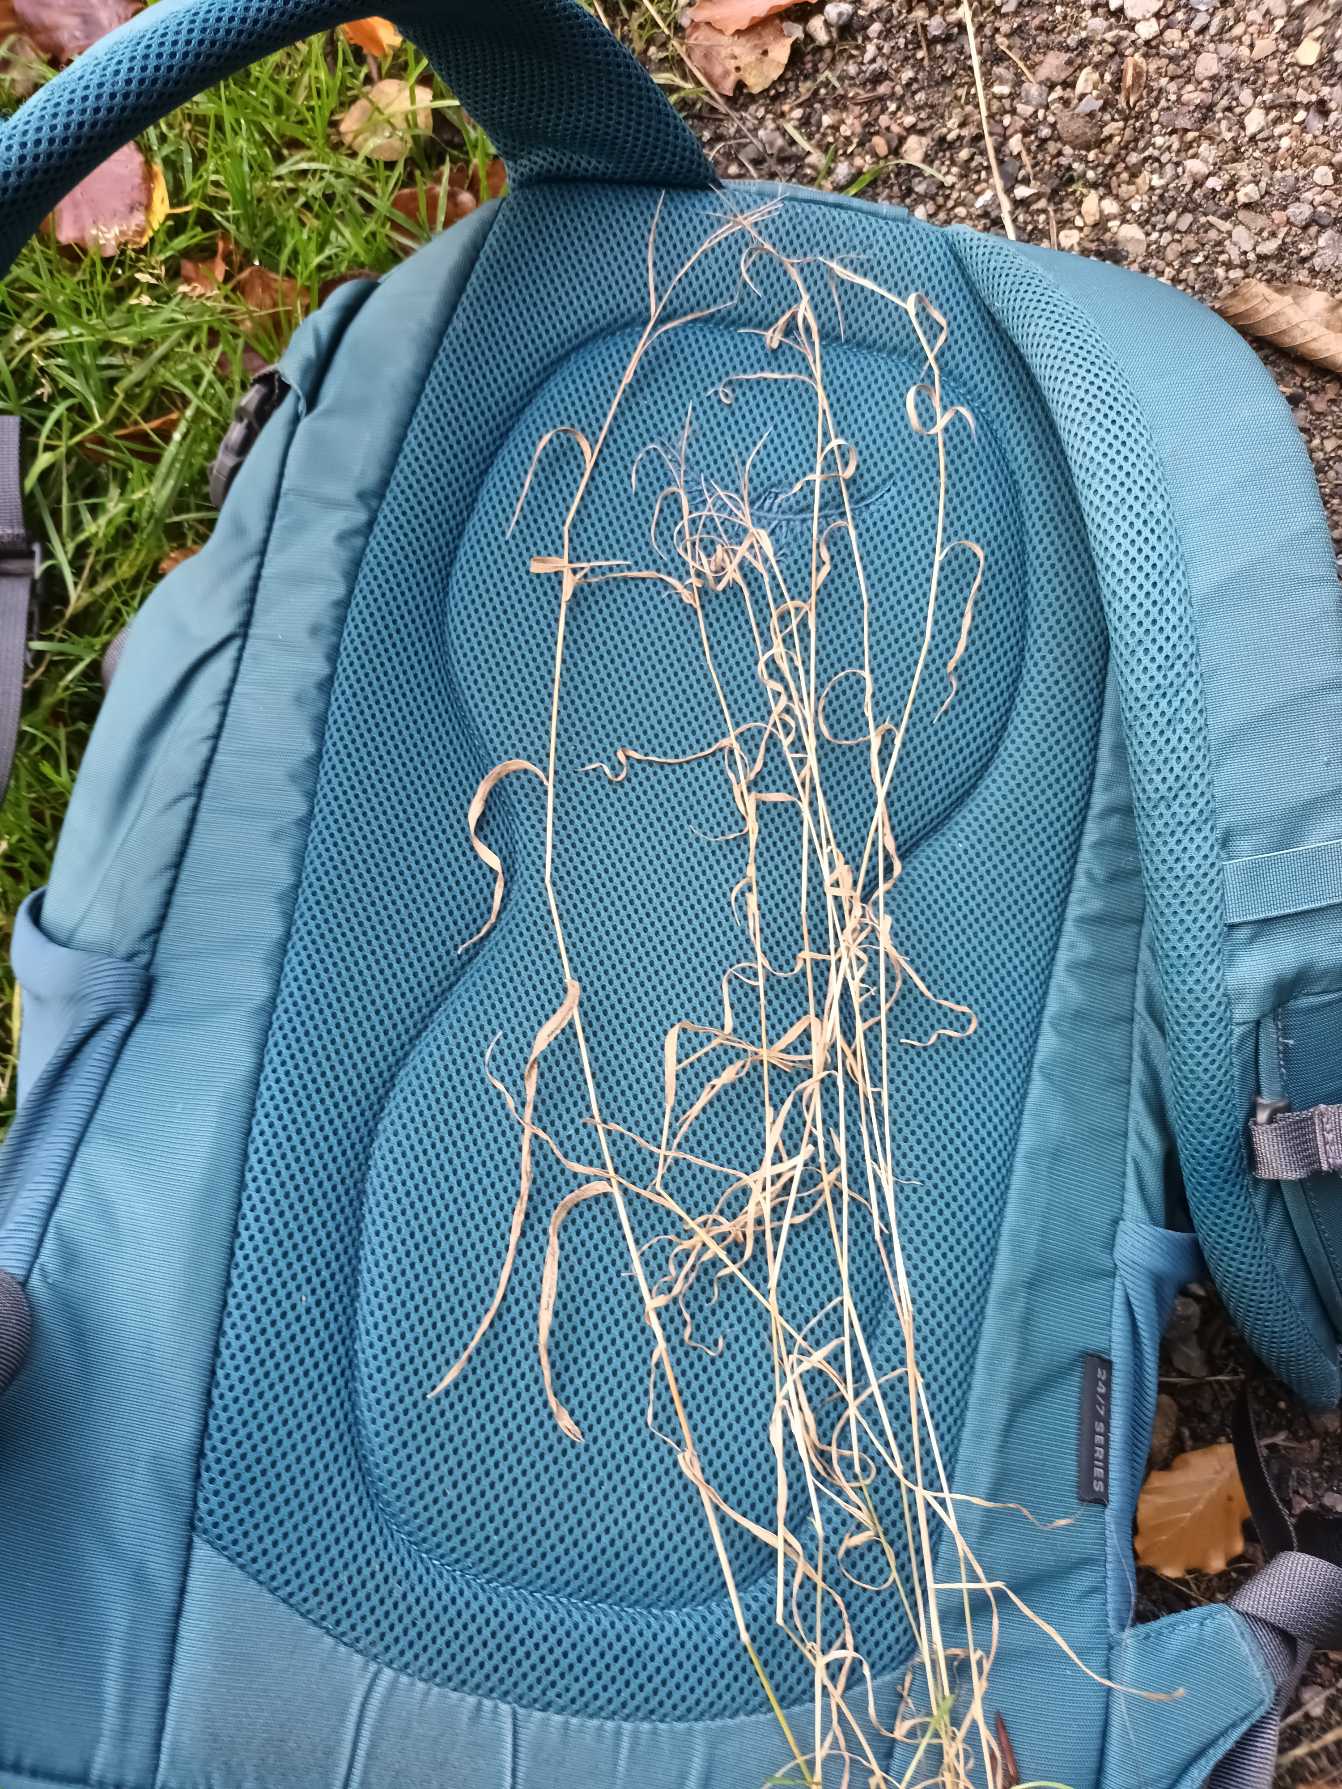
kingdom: Plantae
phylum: Tracheophyta
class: Liliopsida
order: Poales
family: Poaceae
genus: Holcus
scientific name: Holcus mollis
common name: Krybende hestegræs
